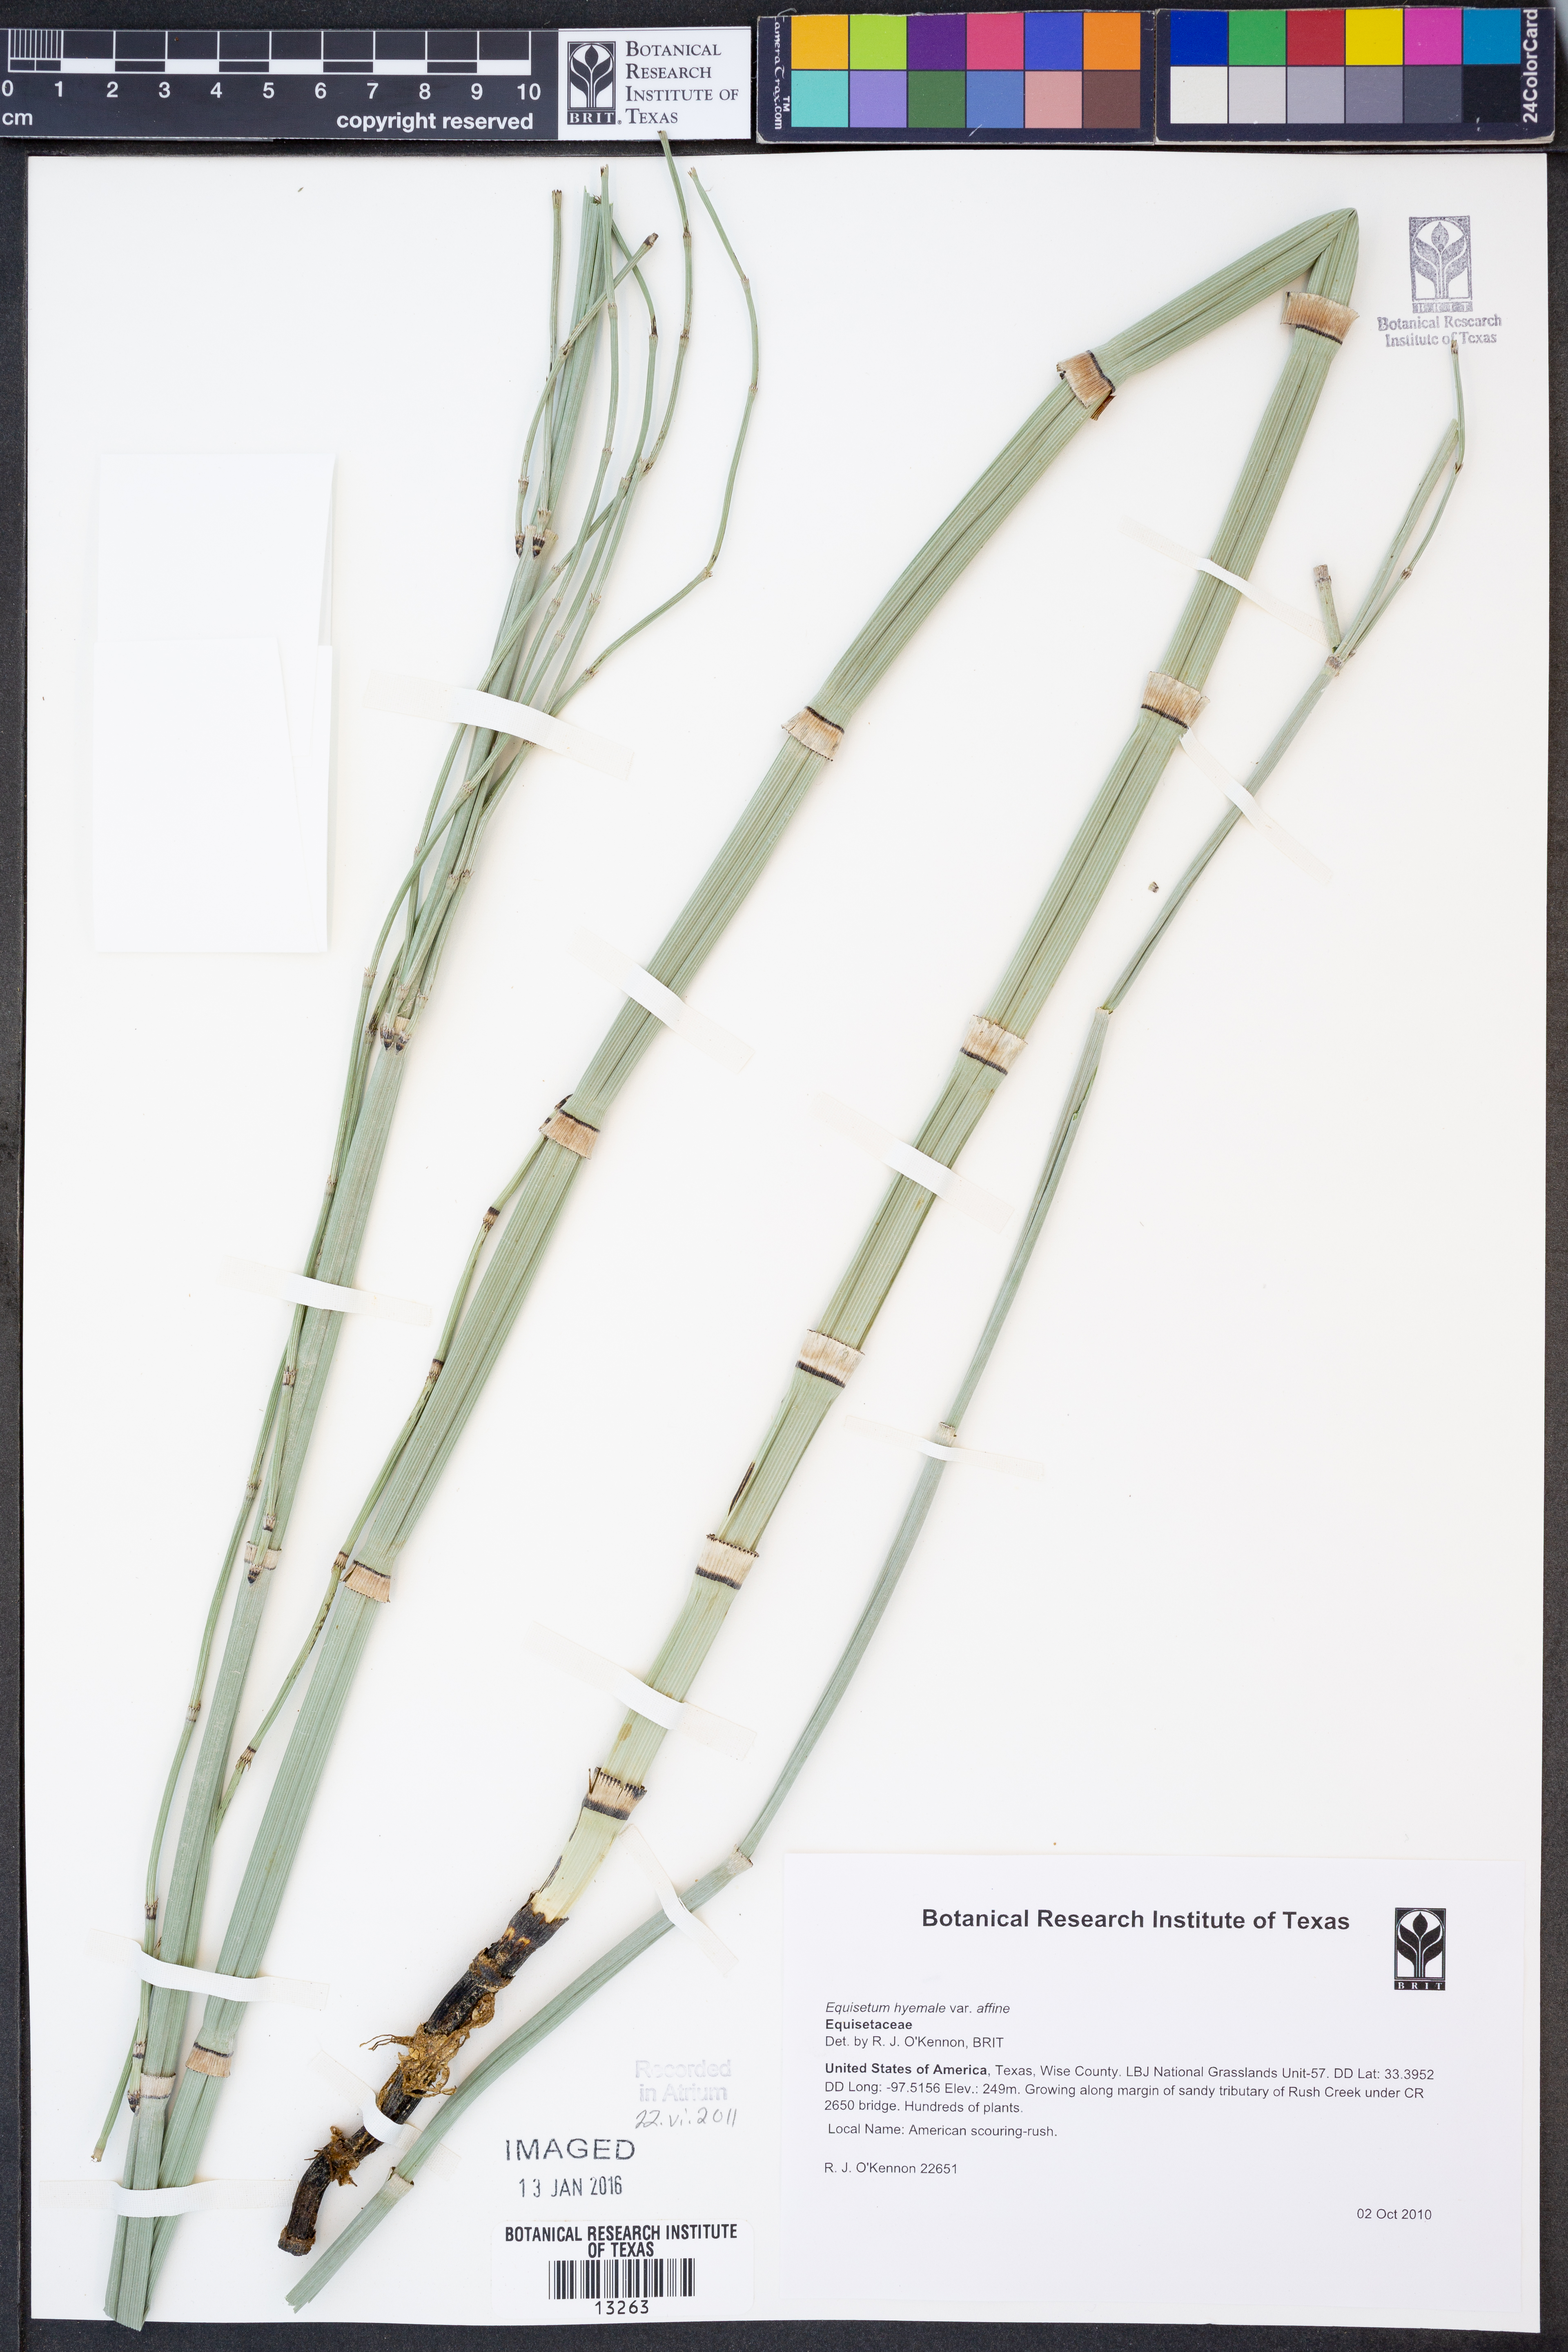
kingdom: Plantae
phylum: Tracheophyta
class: Polypodiopsida
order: Equisetales
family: Equisetaceae
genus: Equisetum
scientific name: Equisetum praealtum
